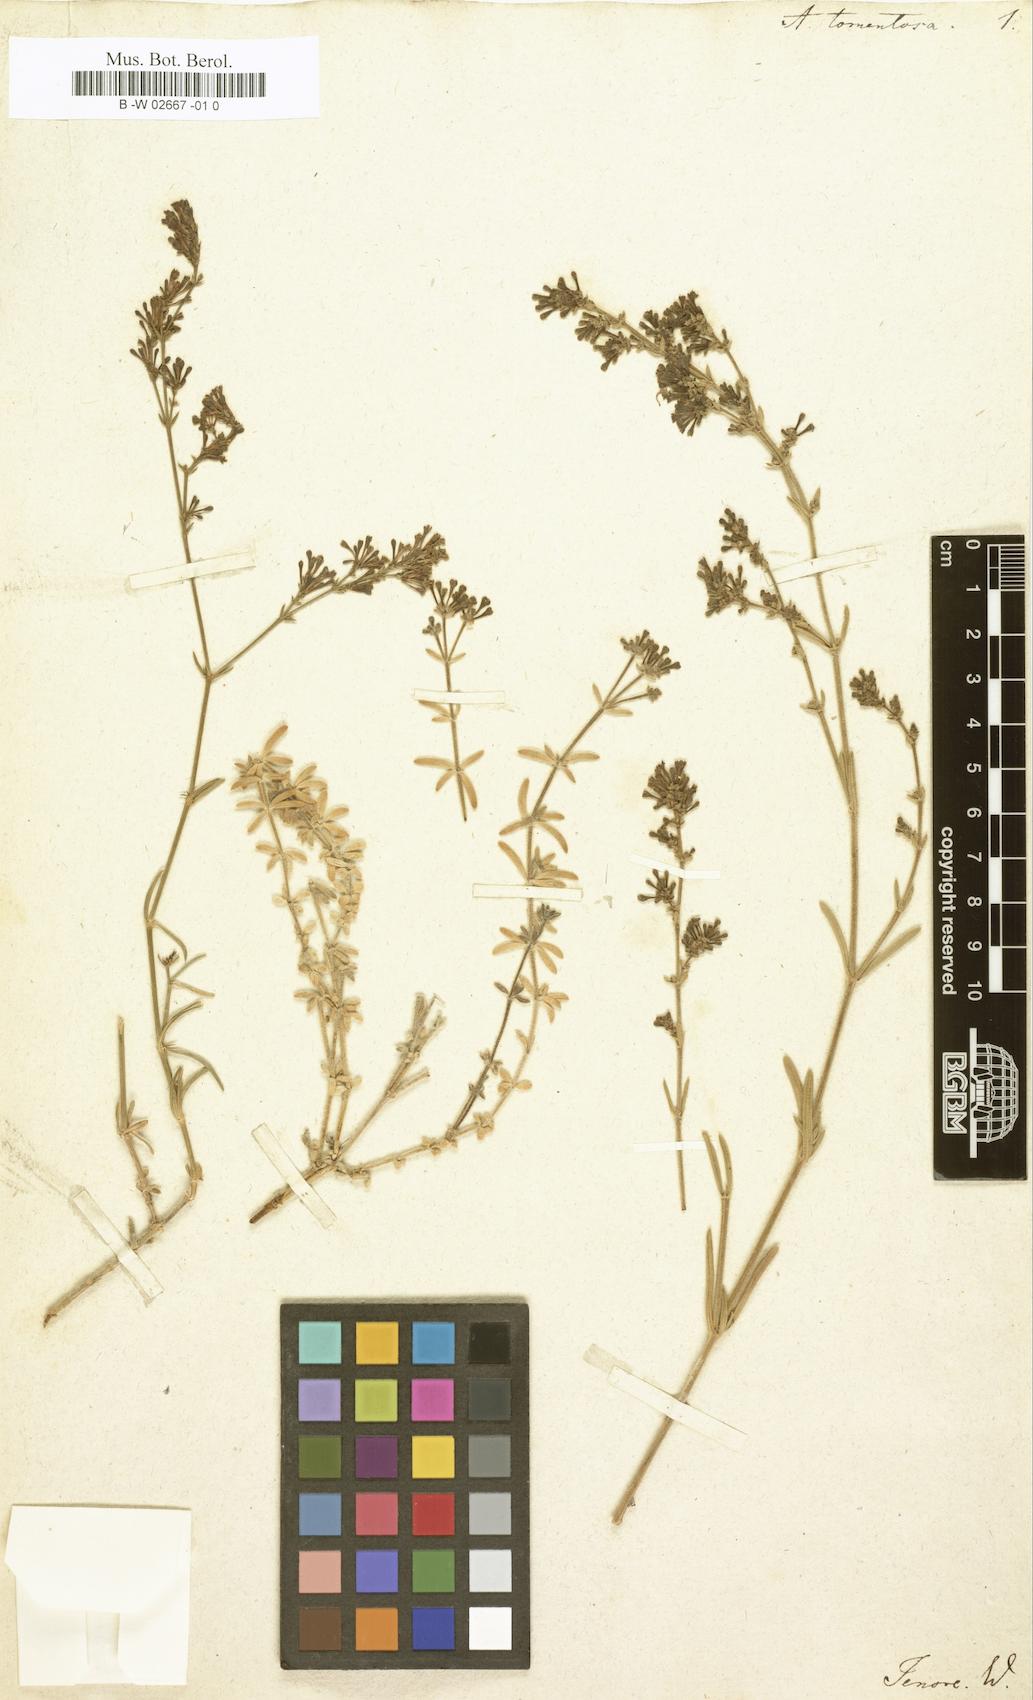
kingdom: Plantae
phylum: Tracheophyta
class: Magnoliopsida
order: Gentianales
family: Rubiaceae
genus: Cynanchica
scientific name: Cynanchica crassifolia
